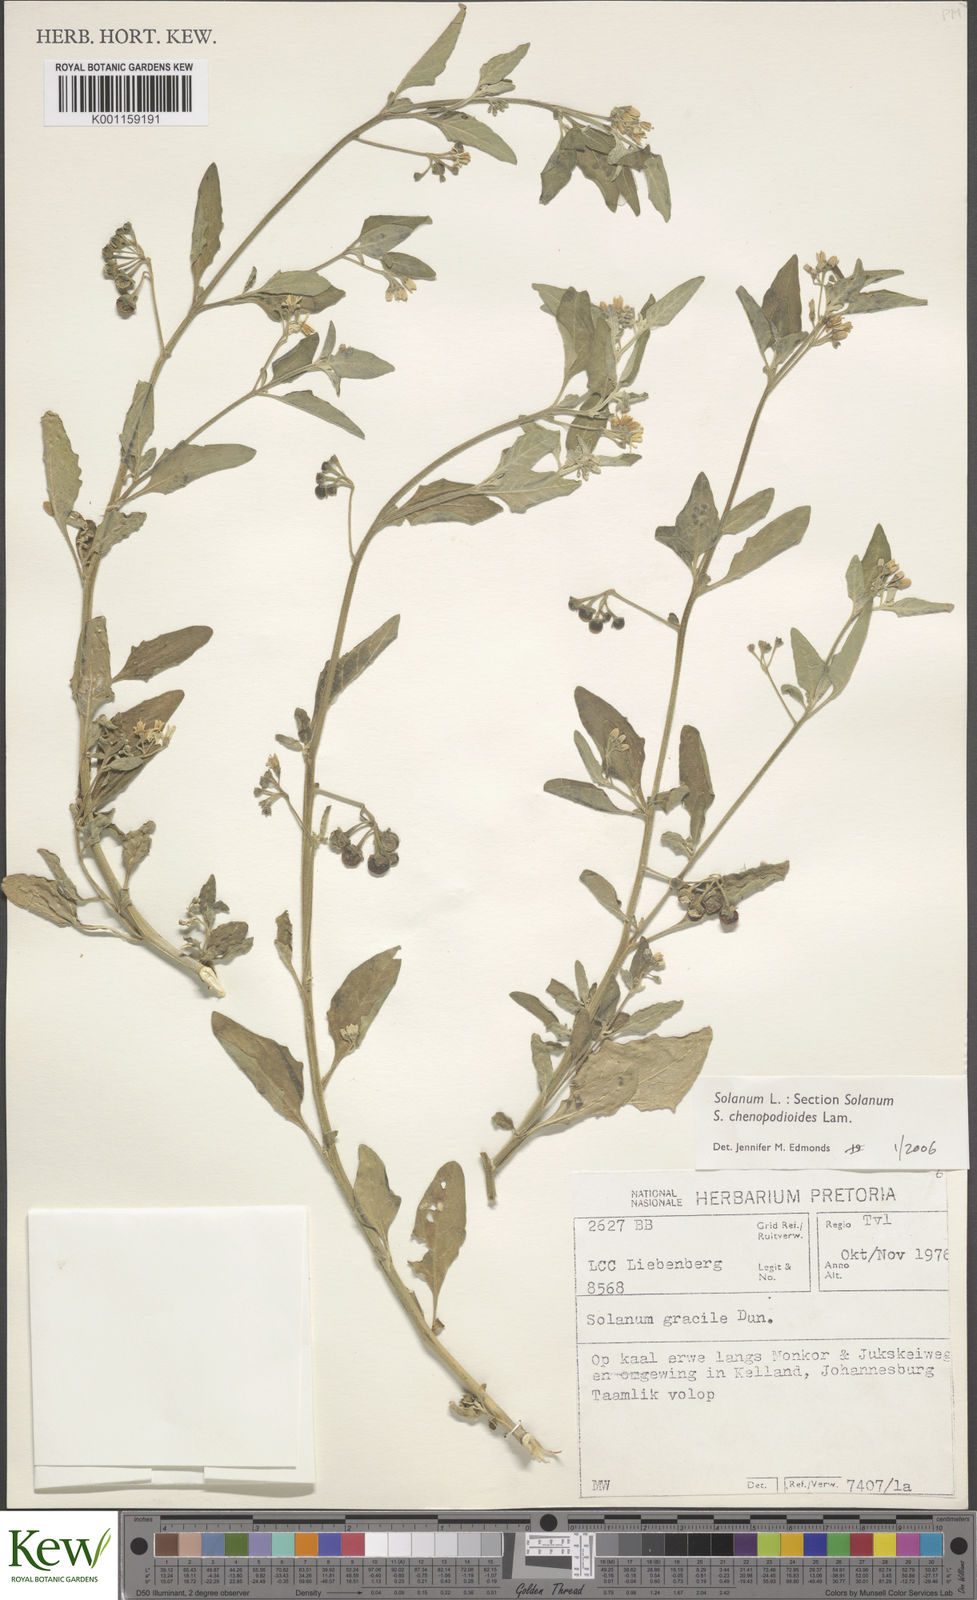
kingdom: Plantae
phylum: Tracheophyta
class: Magnoliopsida
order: Solanales
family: Solanaceae
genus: Solanum
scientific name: Solanum chenopodioides
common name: Tall nightshade
